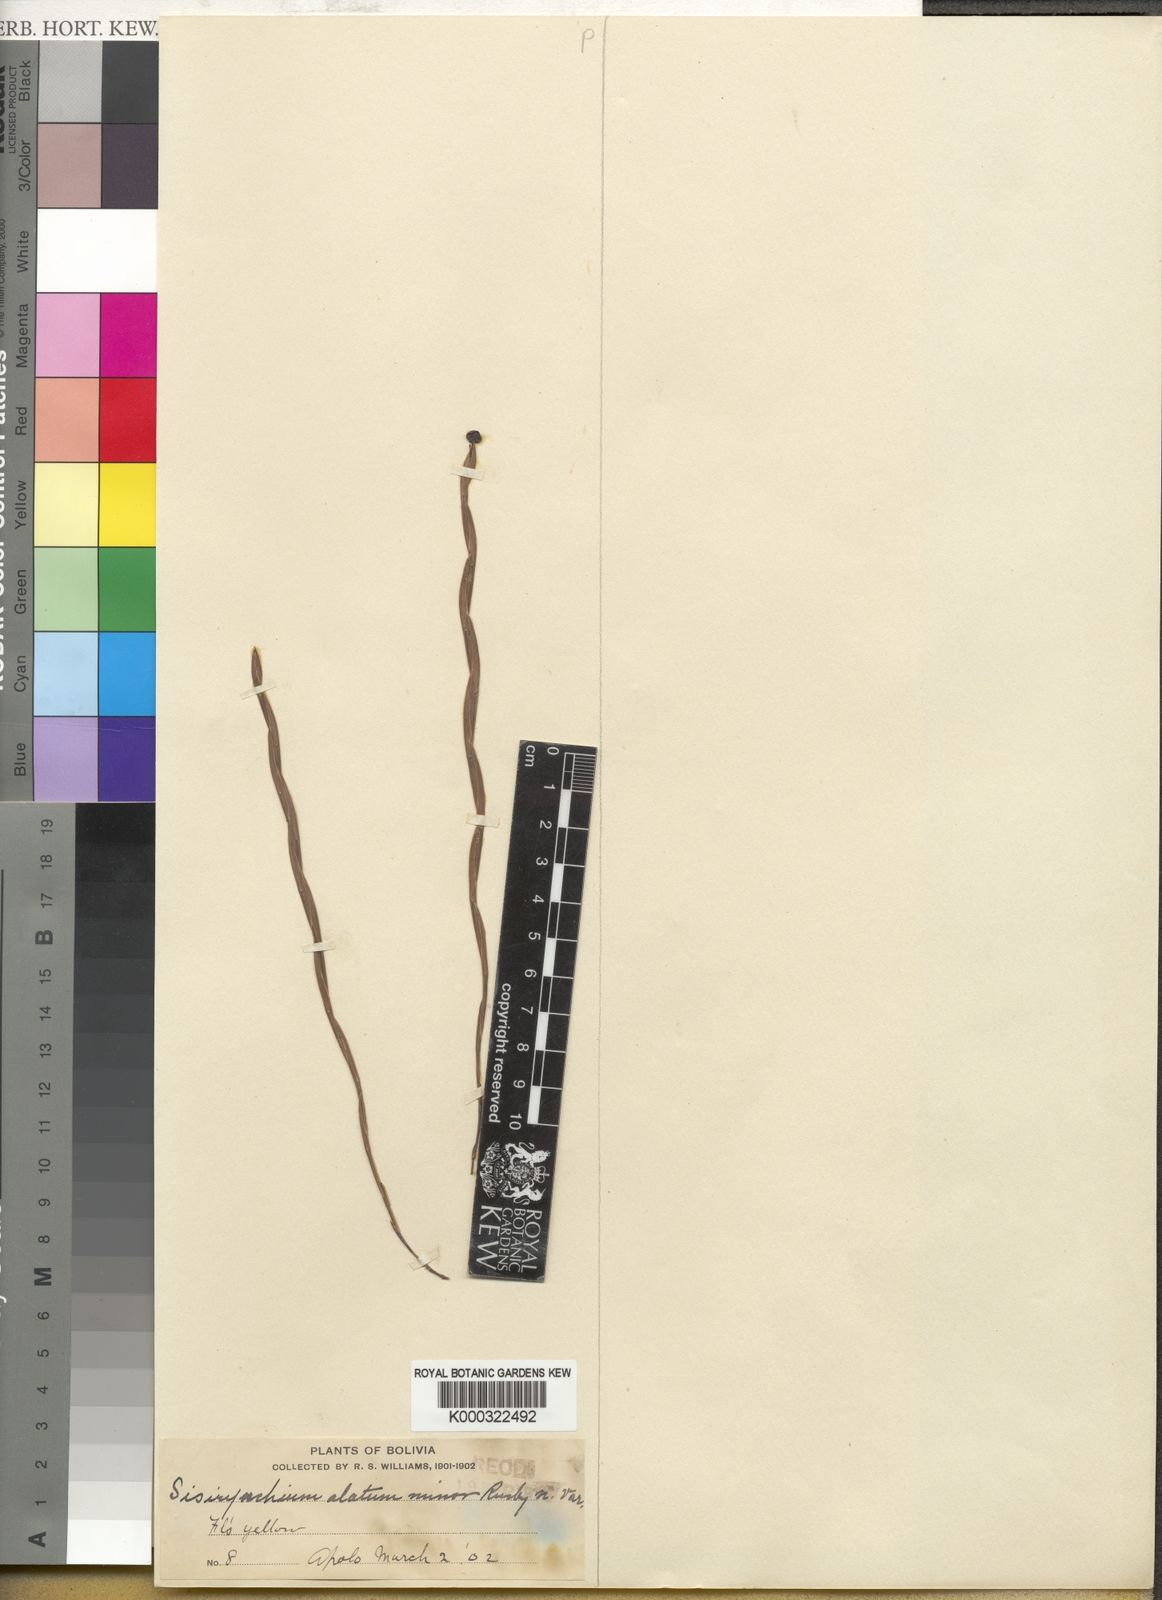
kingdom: Plantae
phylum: Tracheophyta
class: Liliopsida
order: Asparagales
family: Iridaceae
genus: Sisyrinchium
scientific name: Sisyrinchium vaginatum
